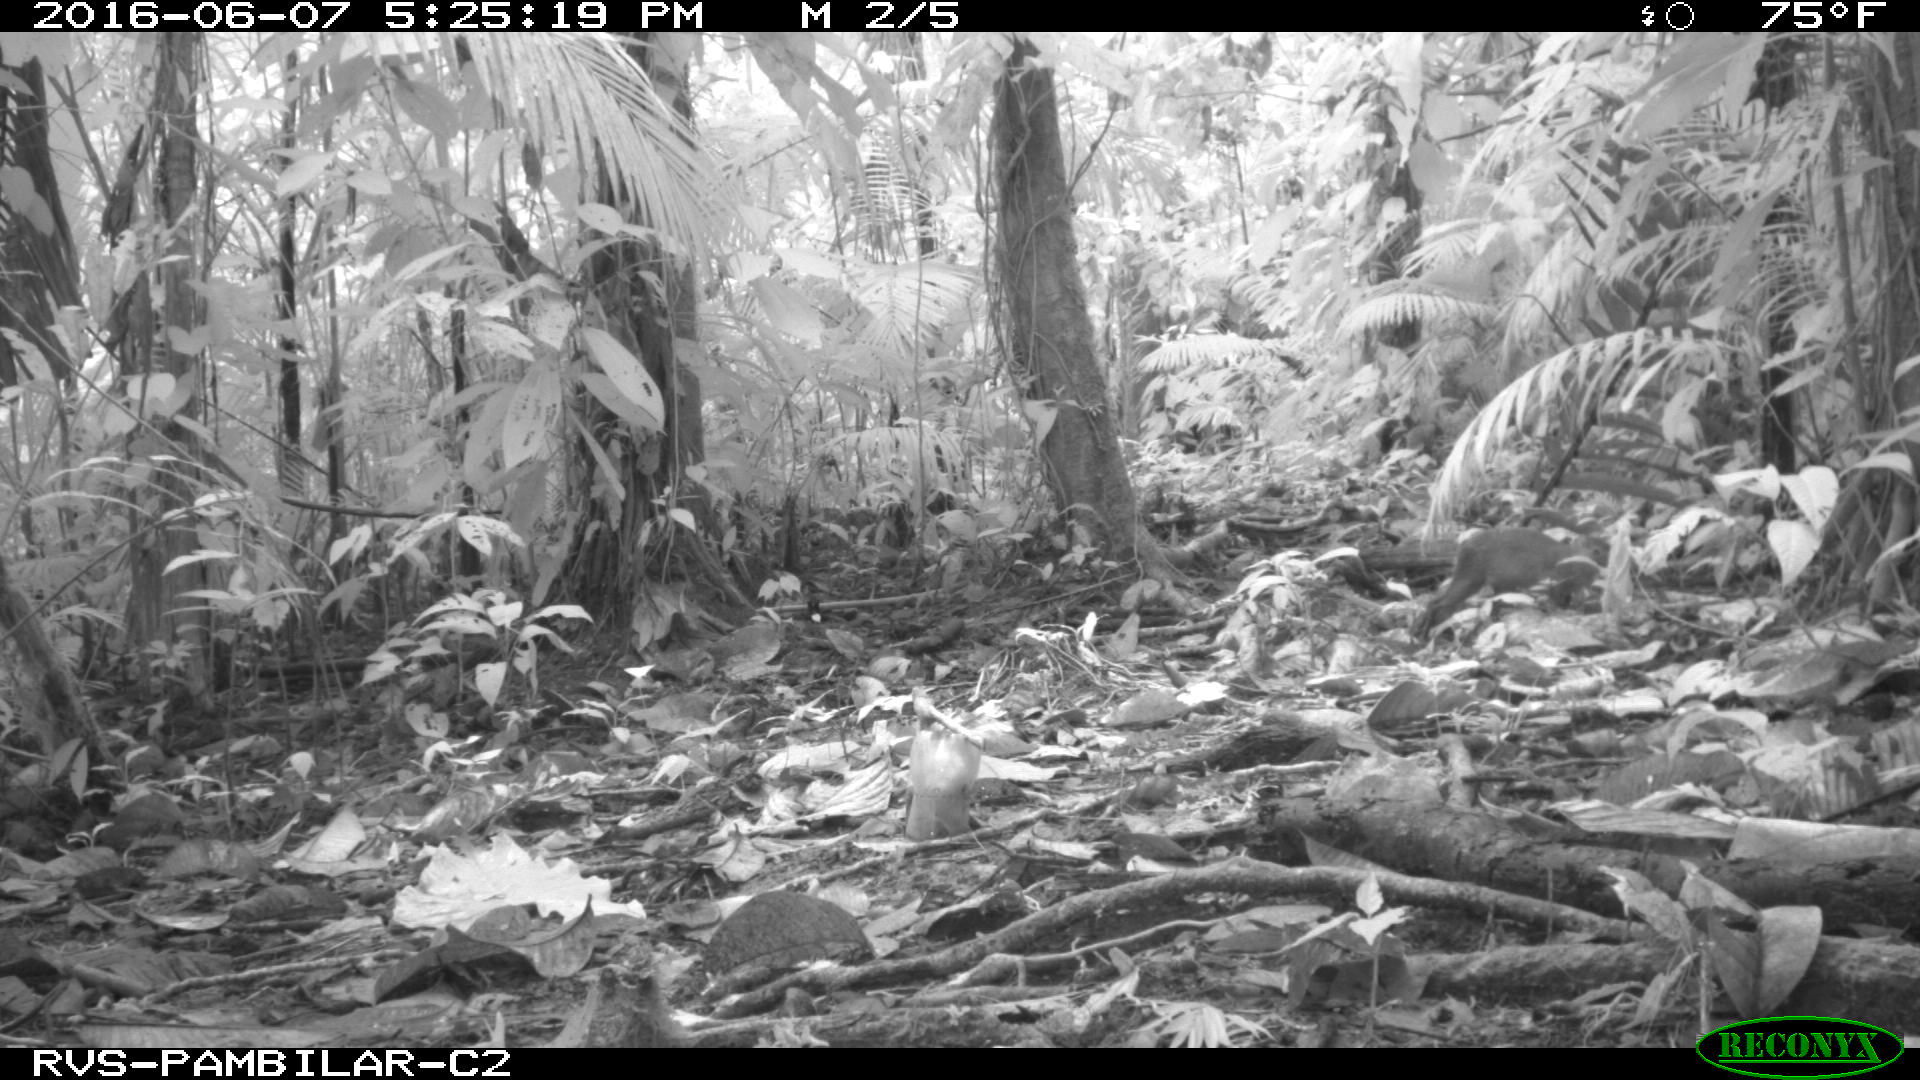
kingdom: Animalia
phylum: Chordata
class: Mammalia
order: Rodentia
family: Dasyproctidae
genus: Dasyprocta
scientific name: Dasyprocta punctata
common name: Central american agouti
